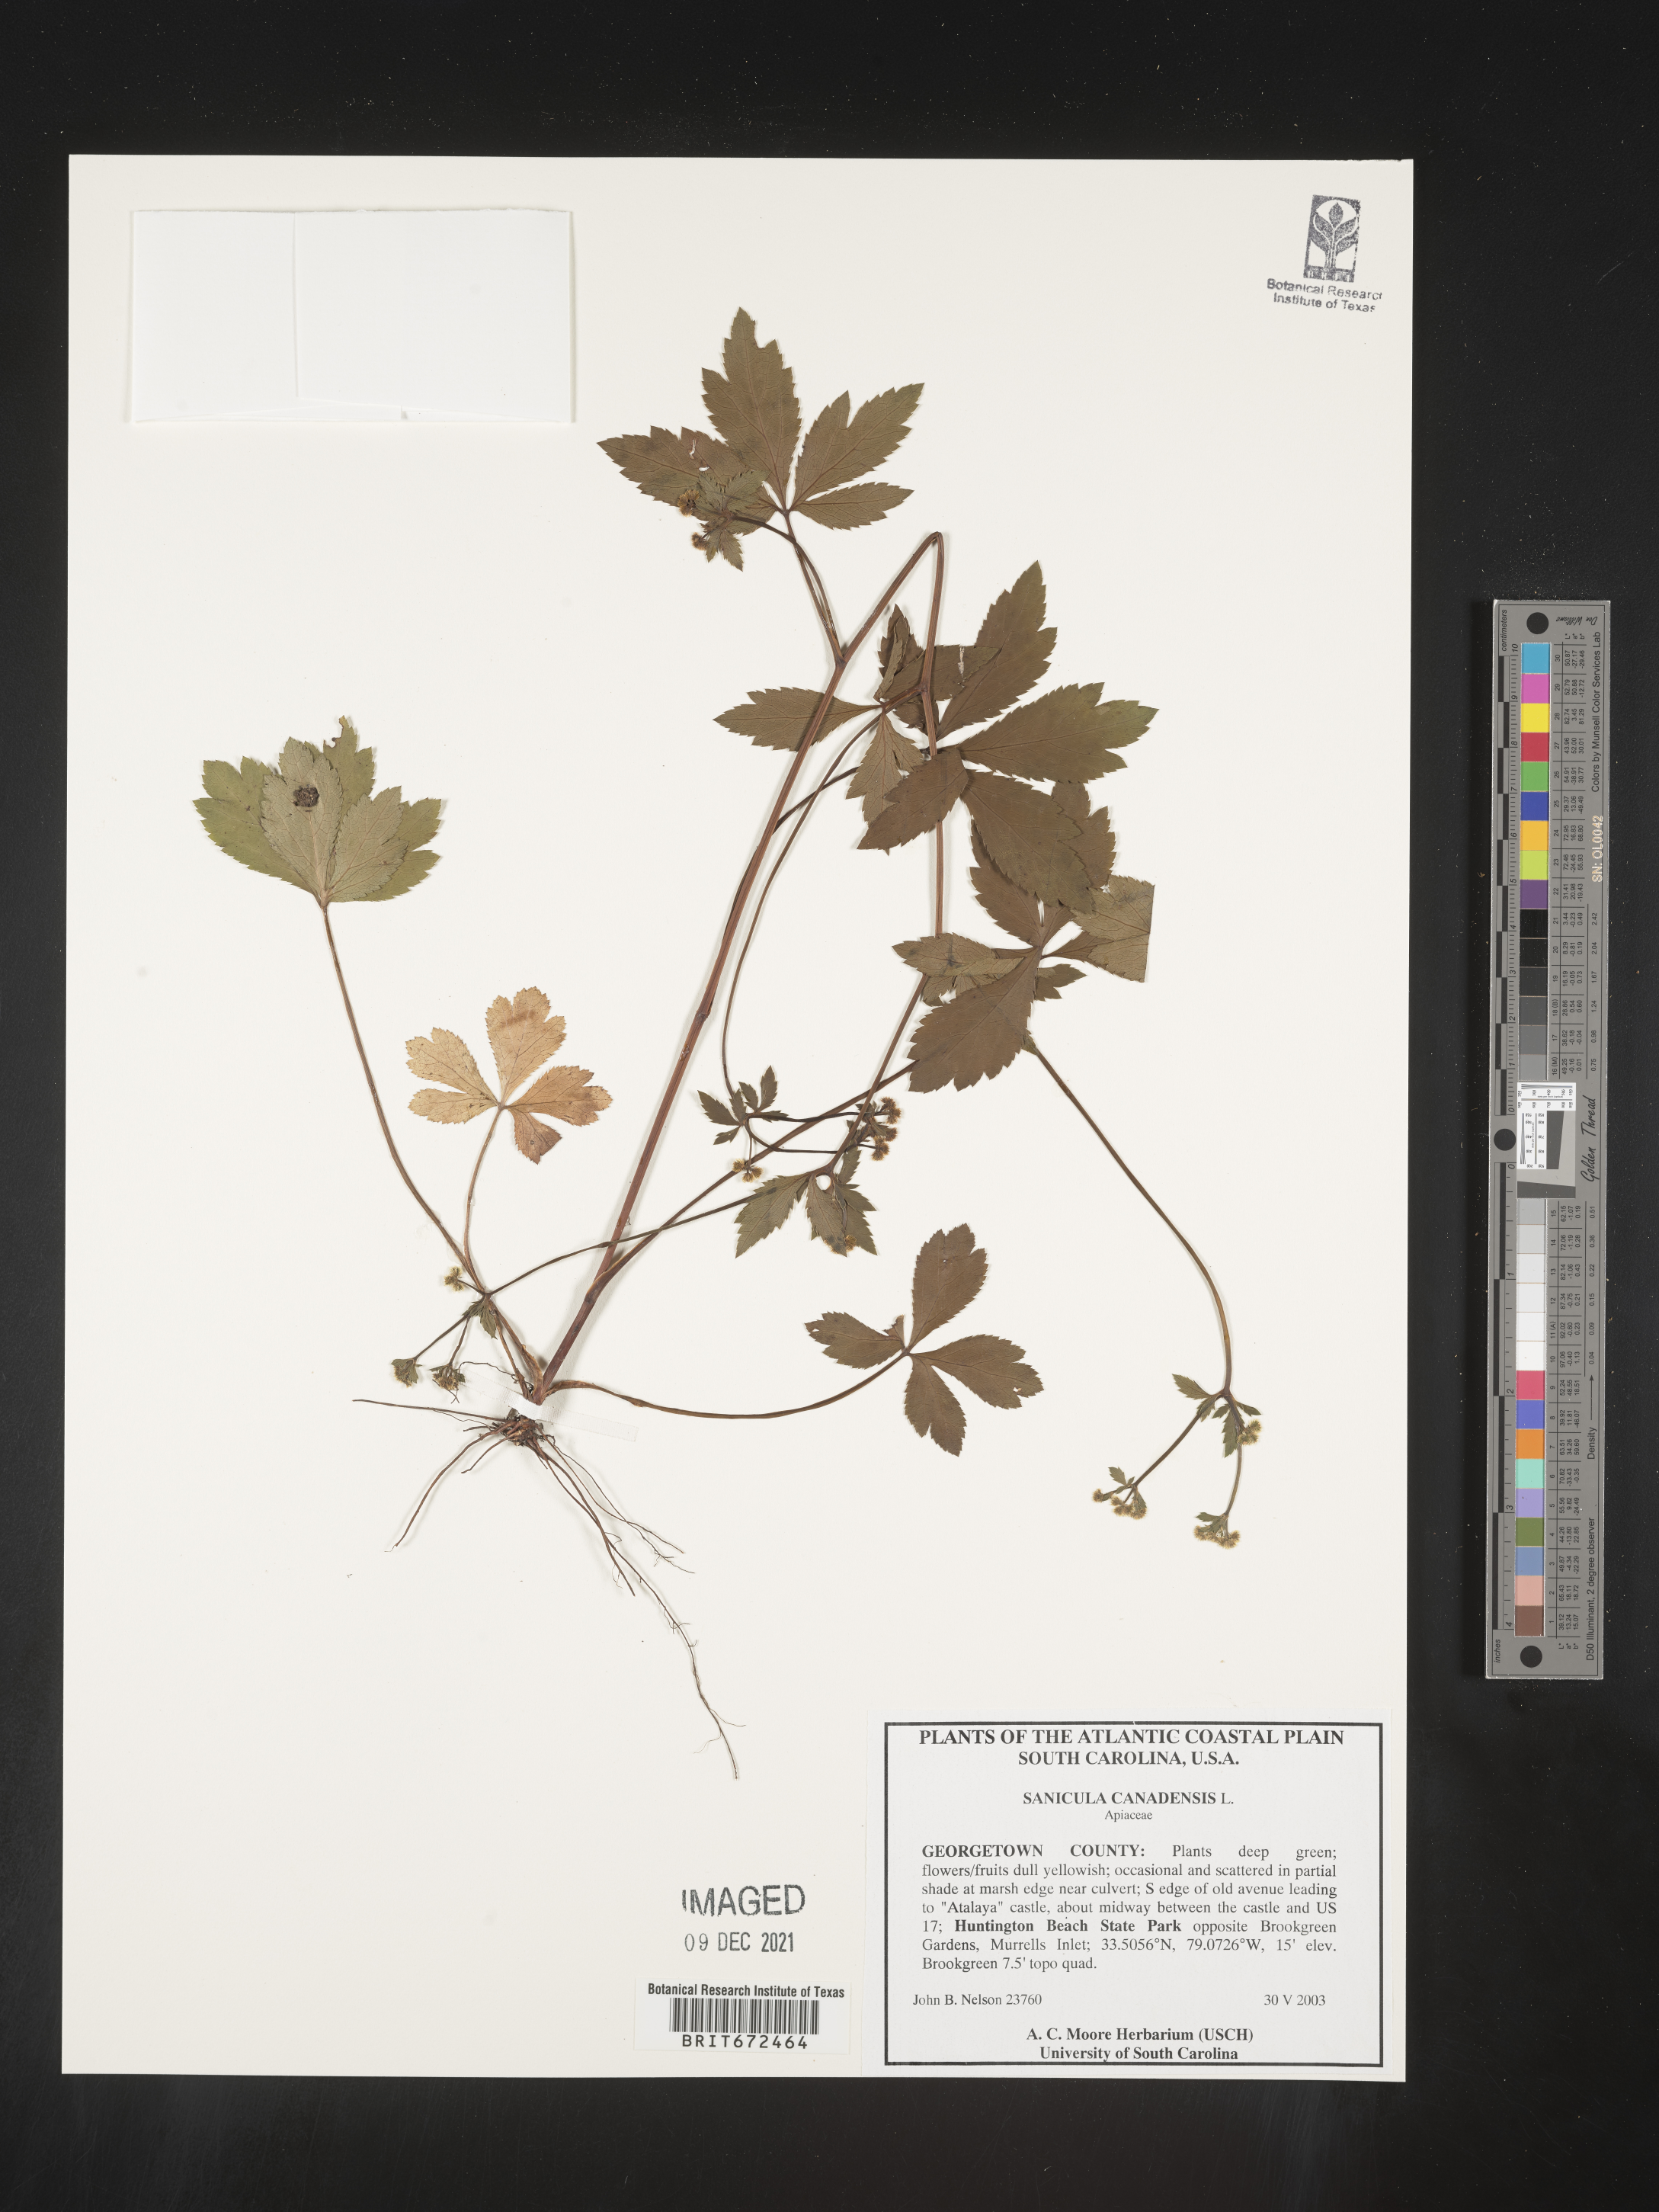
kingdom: Plantae
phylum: Tracheophyta
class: Magnoliopsida
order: Apiales
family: Apiaceae
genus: Sanicula
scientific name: Sanicula canadensis
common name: Canada sanicle
